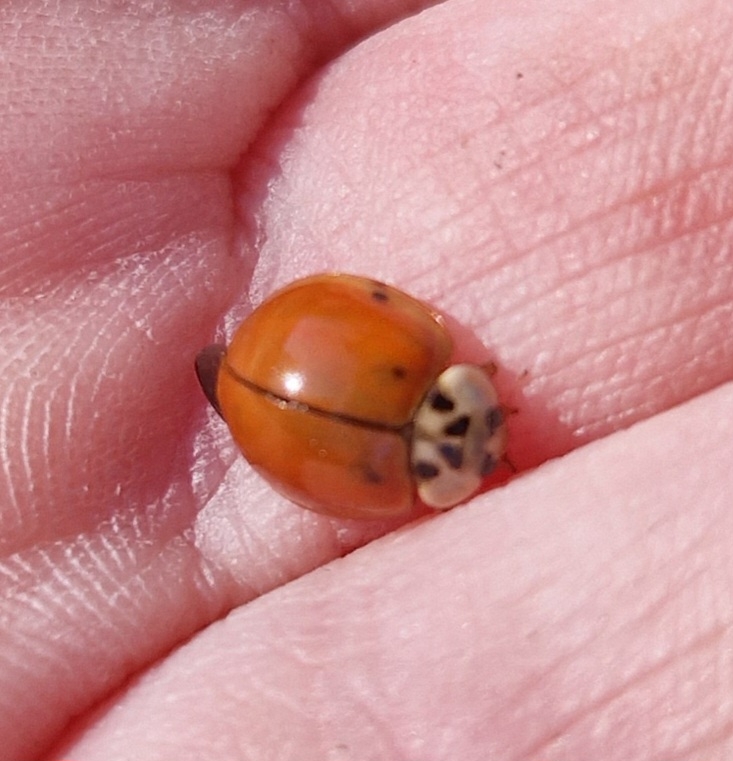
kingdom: Animalia
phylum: Arthropoda
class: Insecta
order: Coleoptera
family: Coccinellidae
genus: Harmonia
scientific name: Harmonia axyridis
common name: Harlekinmariehøne
